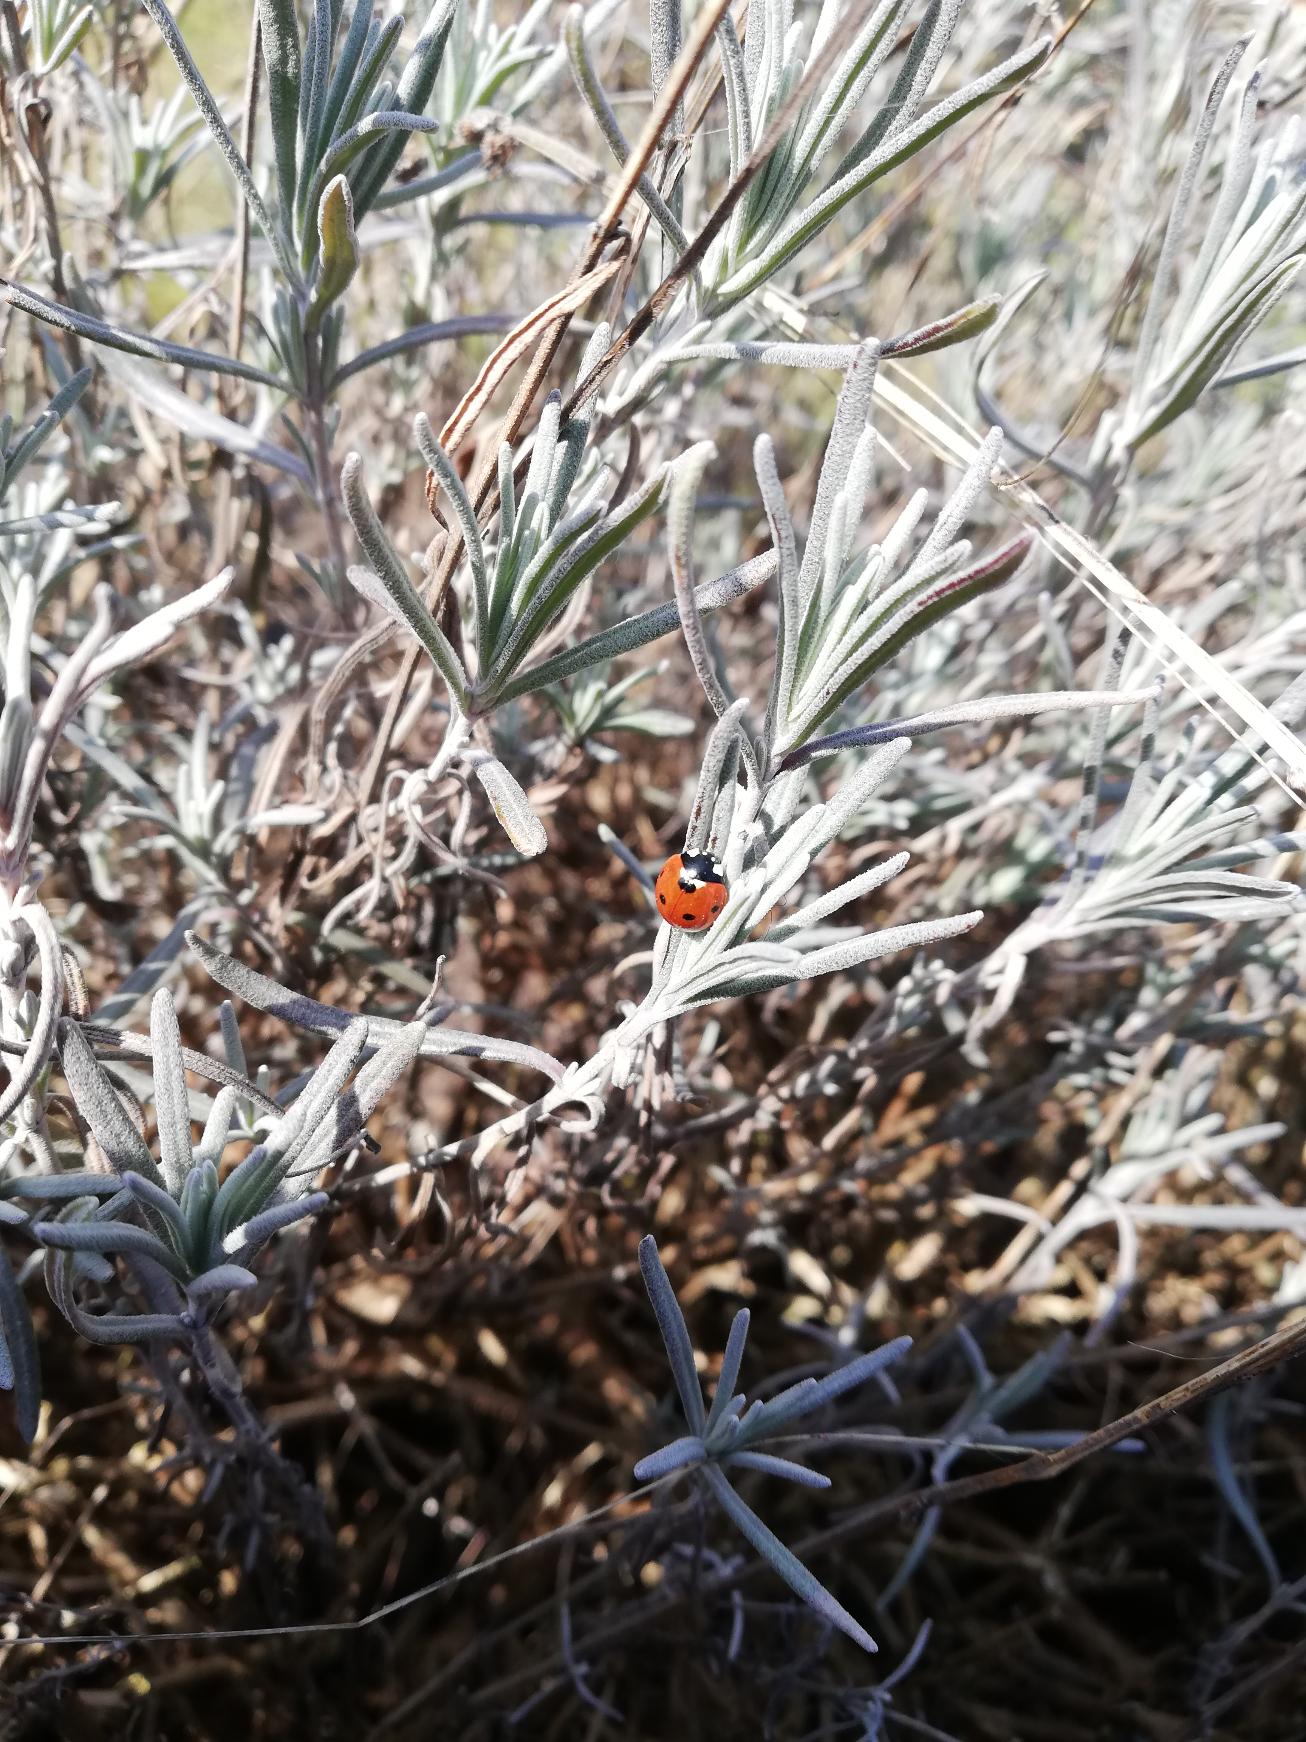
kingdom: Animalia
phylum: Arthropoda
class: Insecta
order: Coleoptera
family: Coccinellidae
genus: Coccinella
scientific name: Coccinella septempunctata
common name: Syvplettet mariehøne
